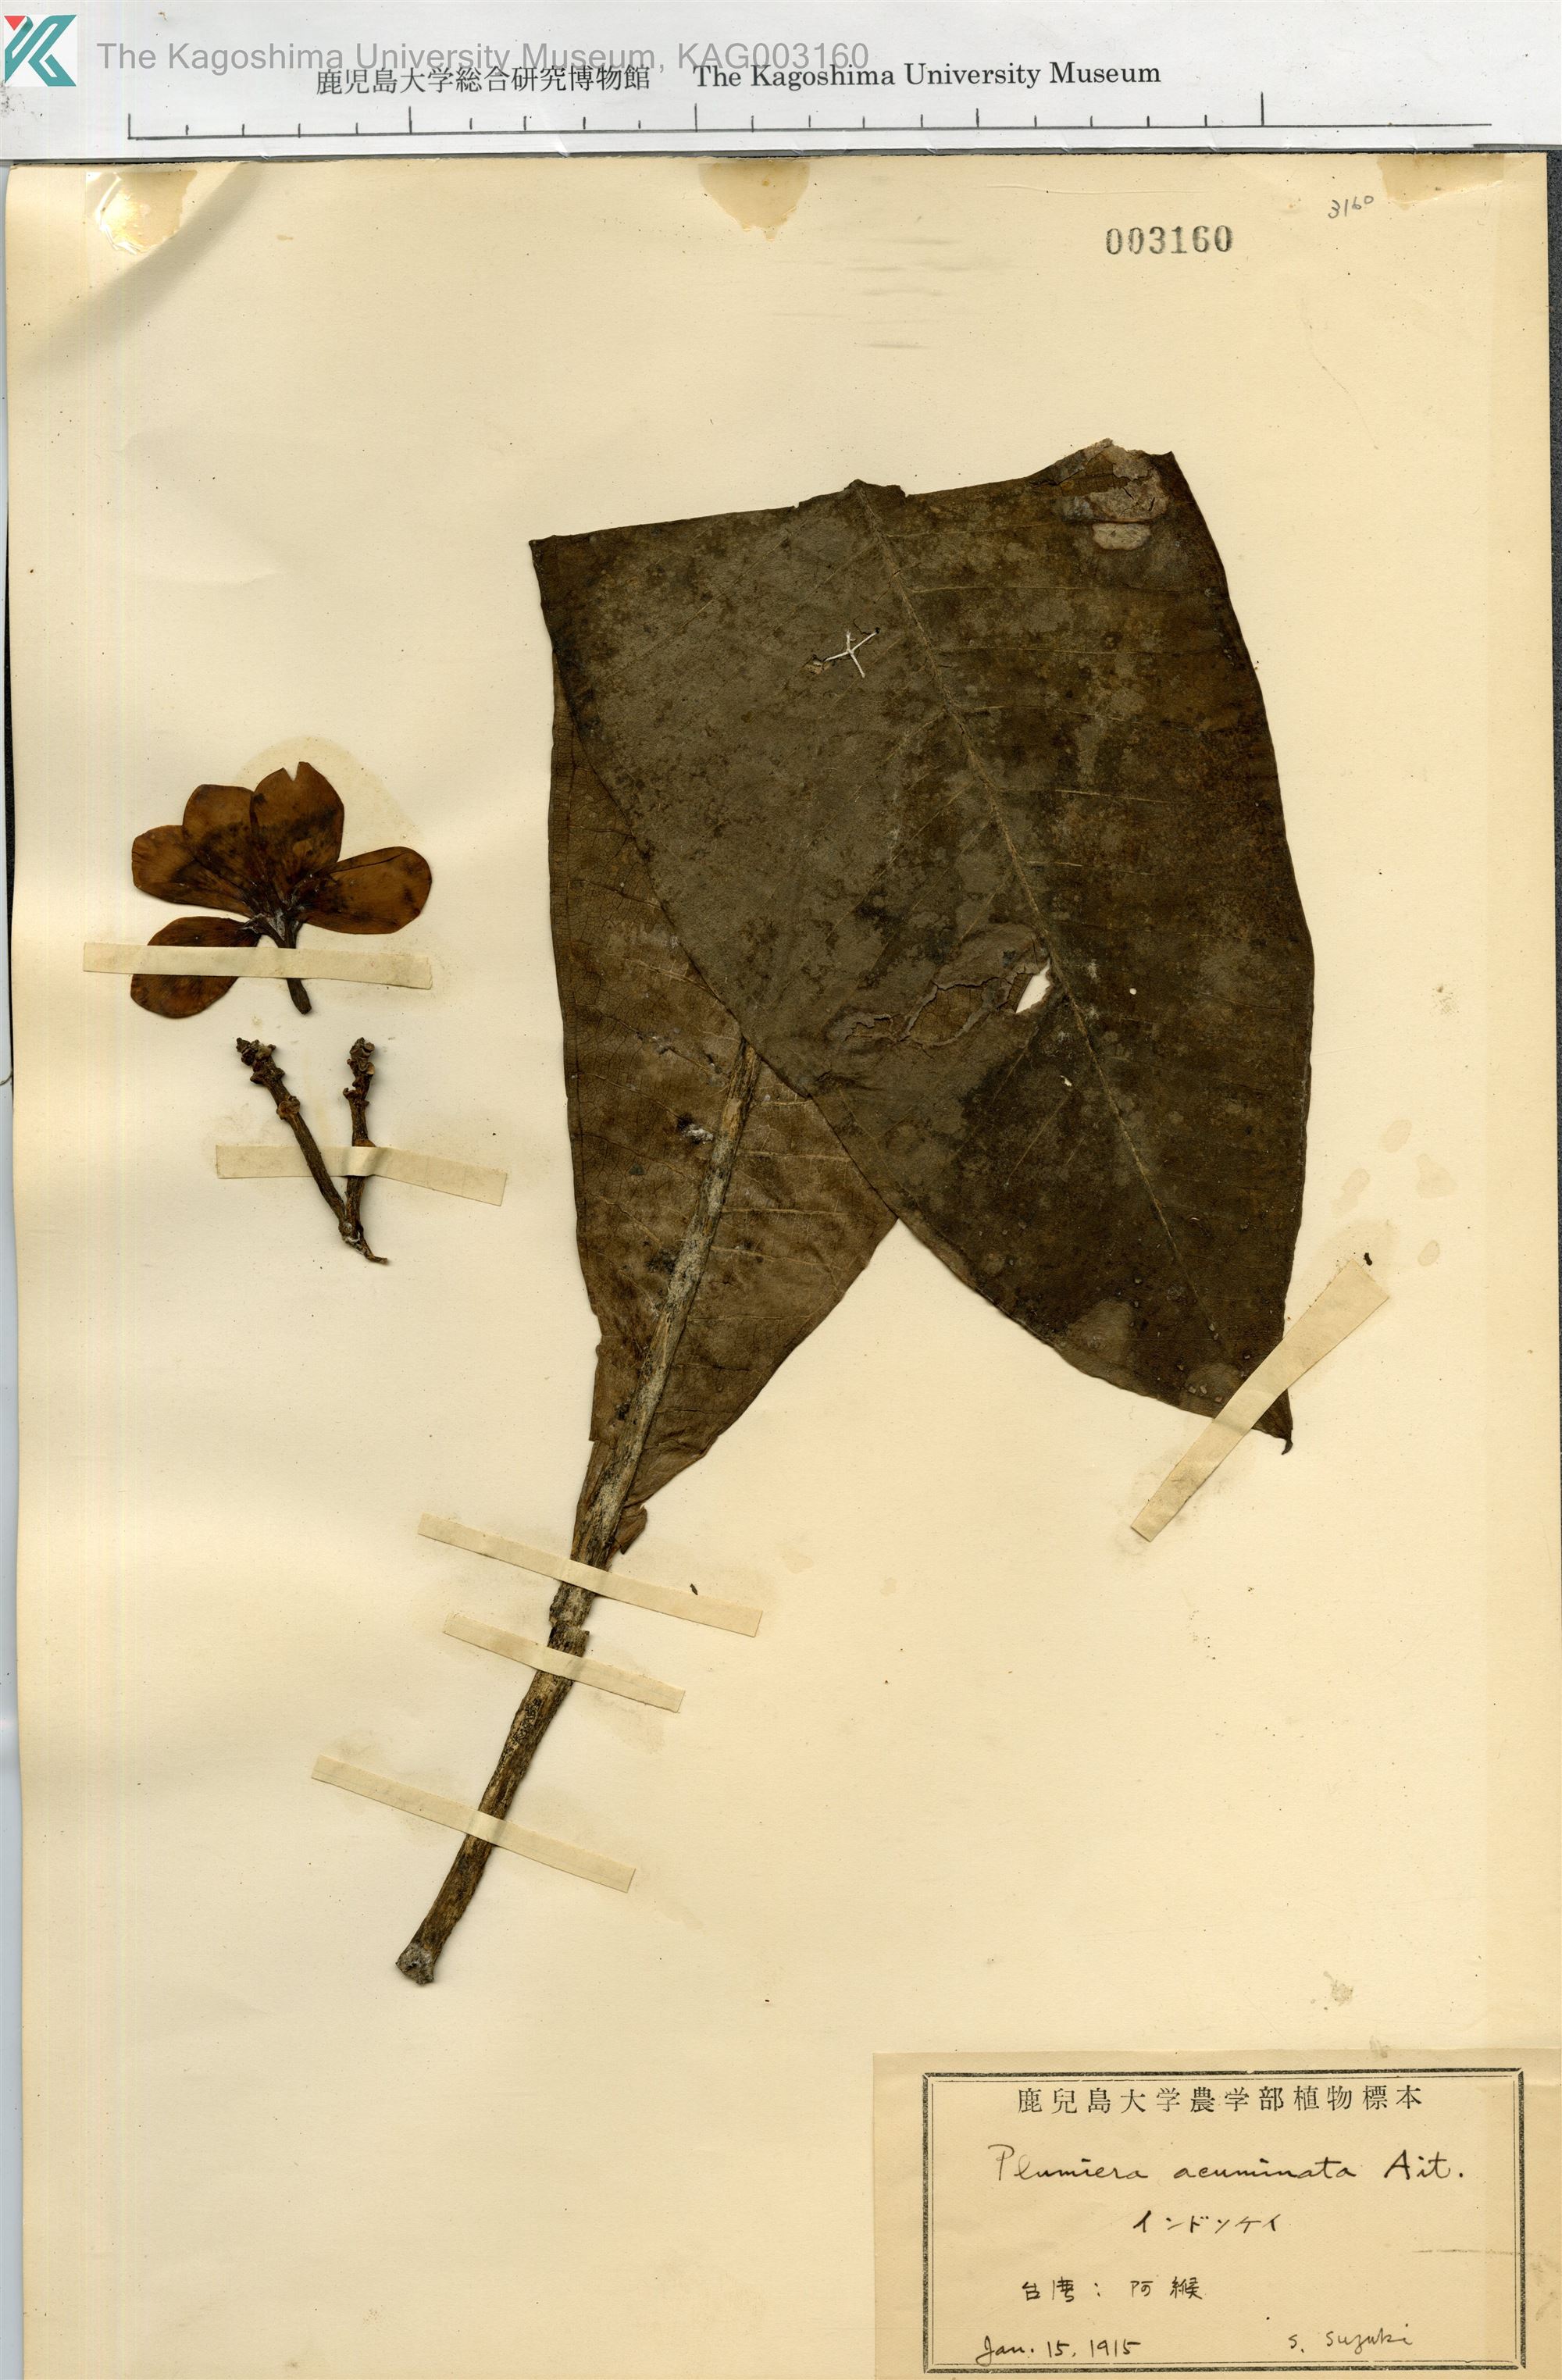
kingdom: Plantae
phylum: Tracheophyta
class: Magnoliopsida
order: Gentianales
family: Apocynaceae
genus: Plumiera
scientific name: Plumiera
